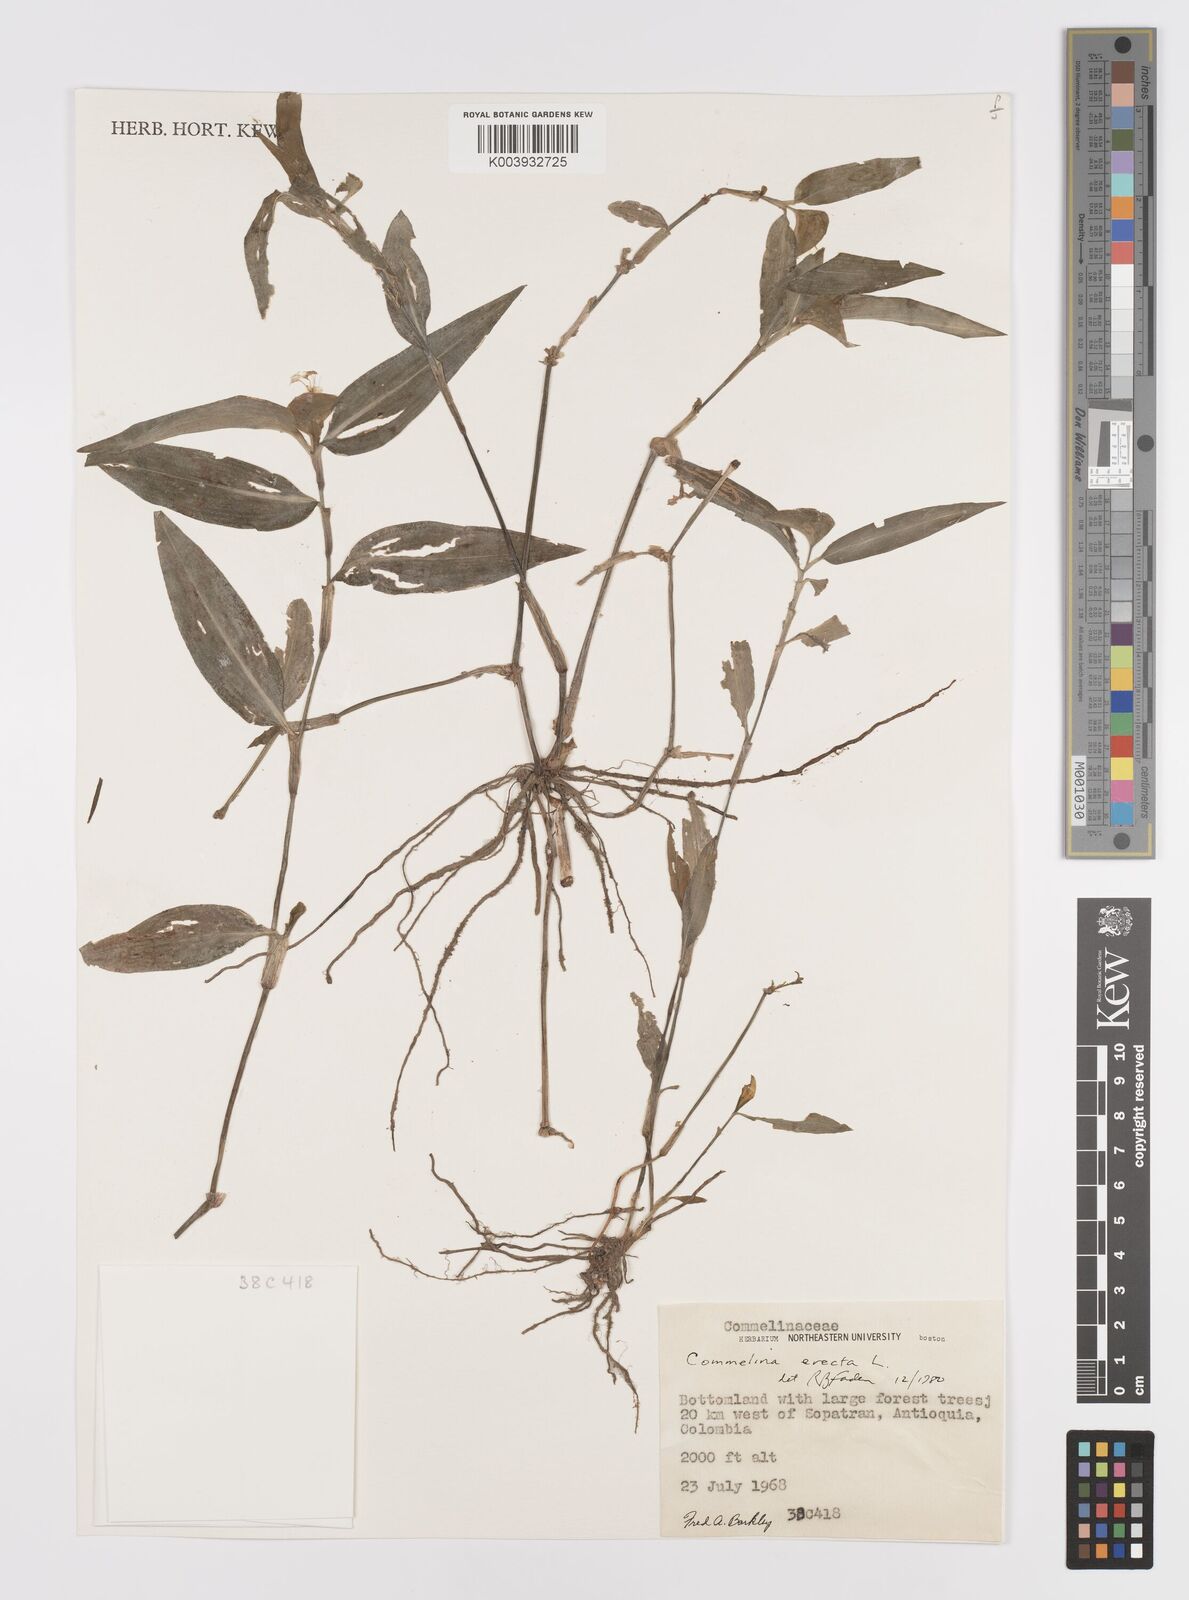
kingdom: Plantae
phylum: Tracheophyta
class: Liliopsida
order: Commelinales
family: Commelinaceae
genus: Commelina
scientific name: Commelina erecta
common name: Blousel blommetjie
